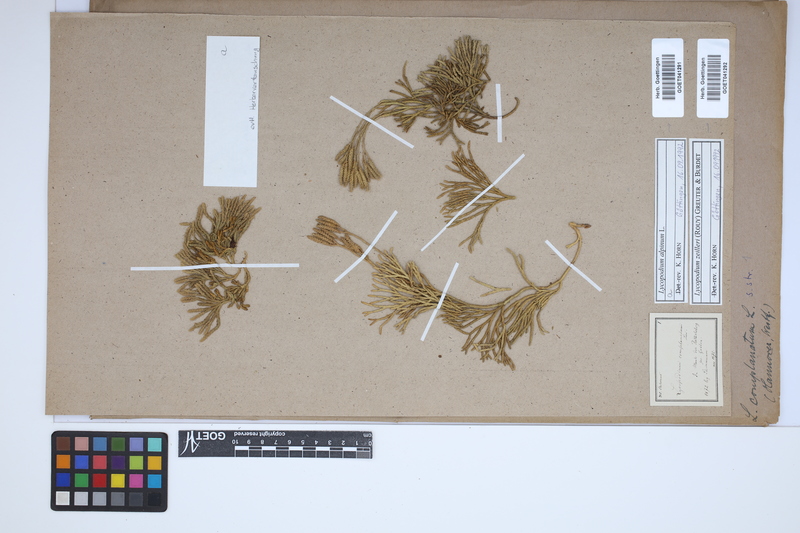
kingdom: Plantae
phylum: Tracheophyta
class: Lycopodiopsida
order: Lycopodiales
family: Lycopodiaceae
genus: Diphasiastrum
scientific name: Diphasiastrum zeilleri
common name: Zeiller's clubmoss
